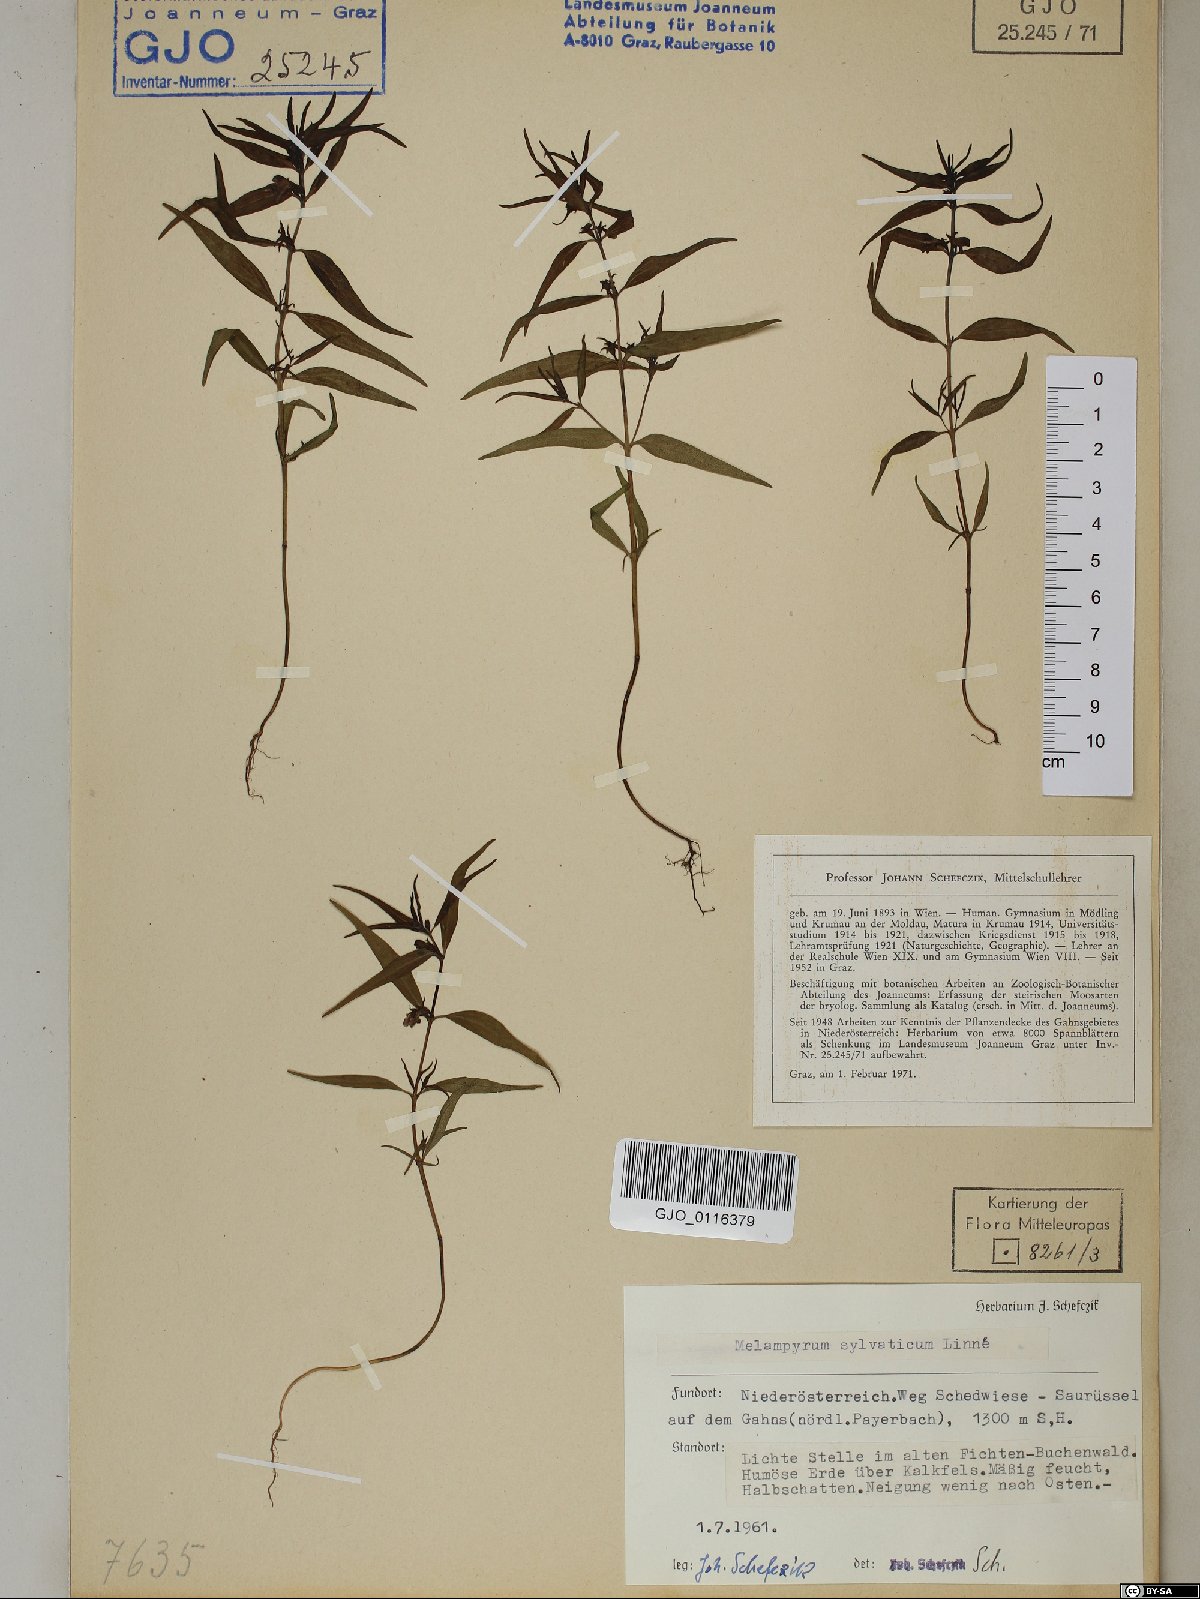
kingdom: Plantae
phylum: Tracheophyta
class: Magnoliopsida
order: Lamiales
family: Orobanchaceae
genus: Melampyrum
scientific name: Melampyrum sylvaticum
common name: Small cow-wheat
